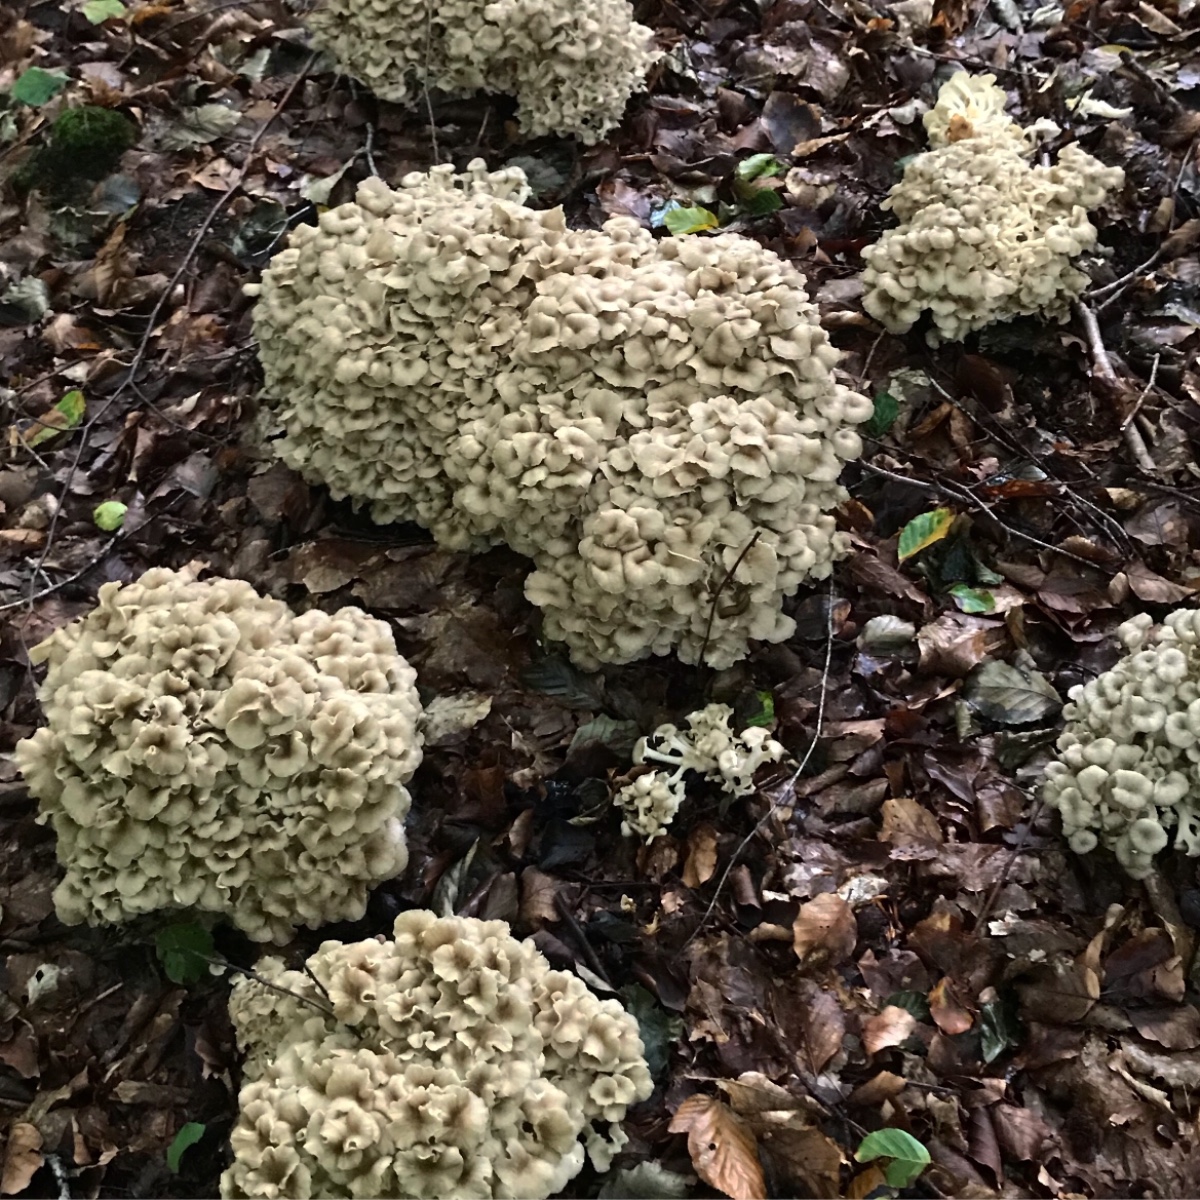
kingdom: Fungi
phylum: Basidiomycota
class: Agaricomycetes
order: Polyporales
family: Polyporaceae
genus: Polyporus
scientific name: Polyporus umbellatus
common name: skærmformet stilkporesvamp
